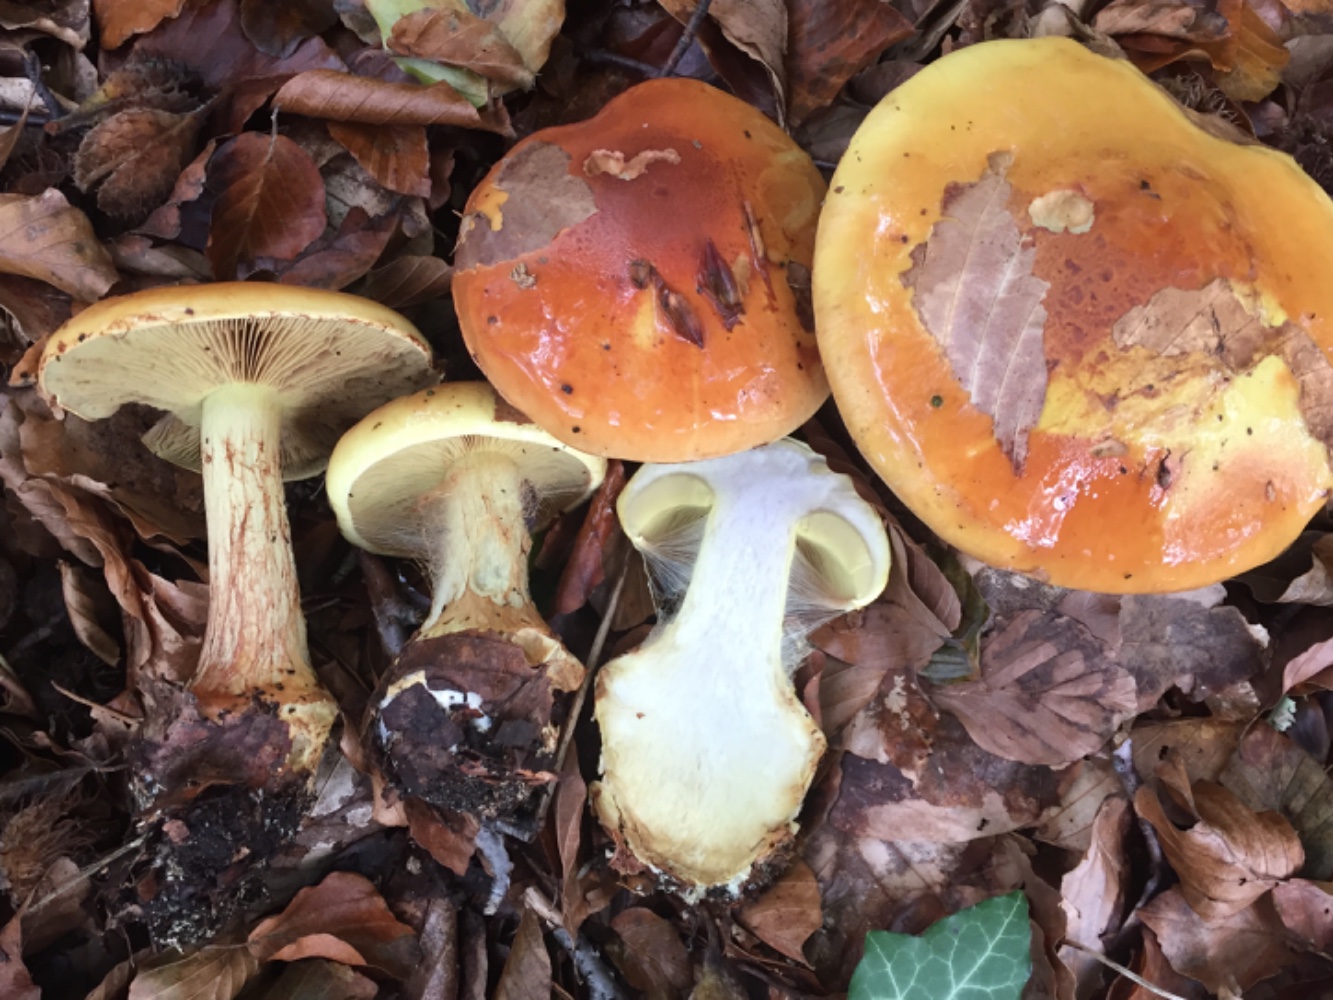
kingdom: Fungi
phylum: Basidiomycota
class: Agaricomycetes
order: Agaricales
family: Cortinariaceae
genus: Calonarius
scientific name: Calonarius elegantissimus
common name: orangegylden slørhat
